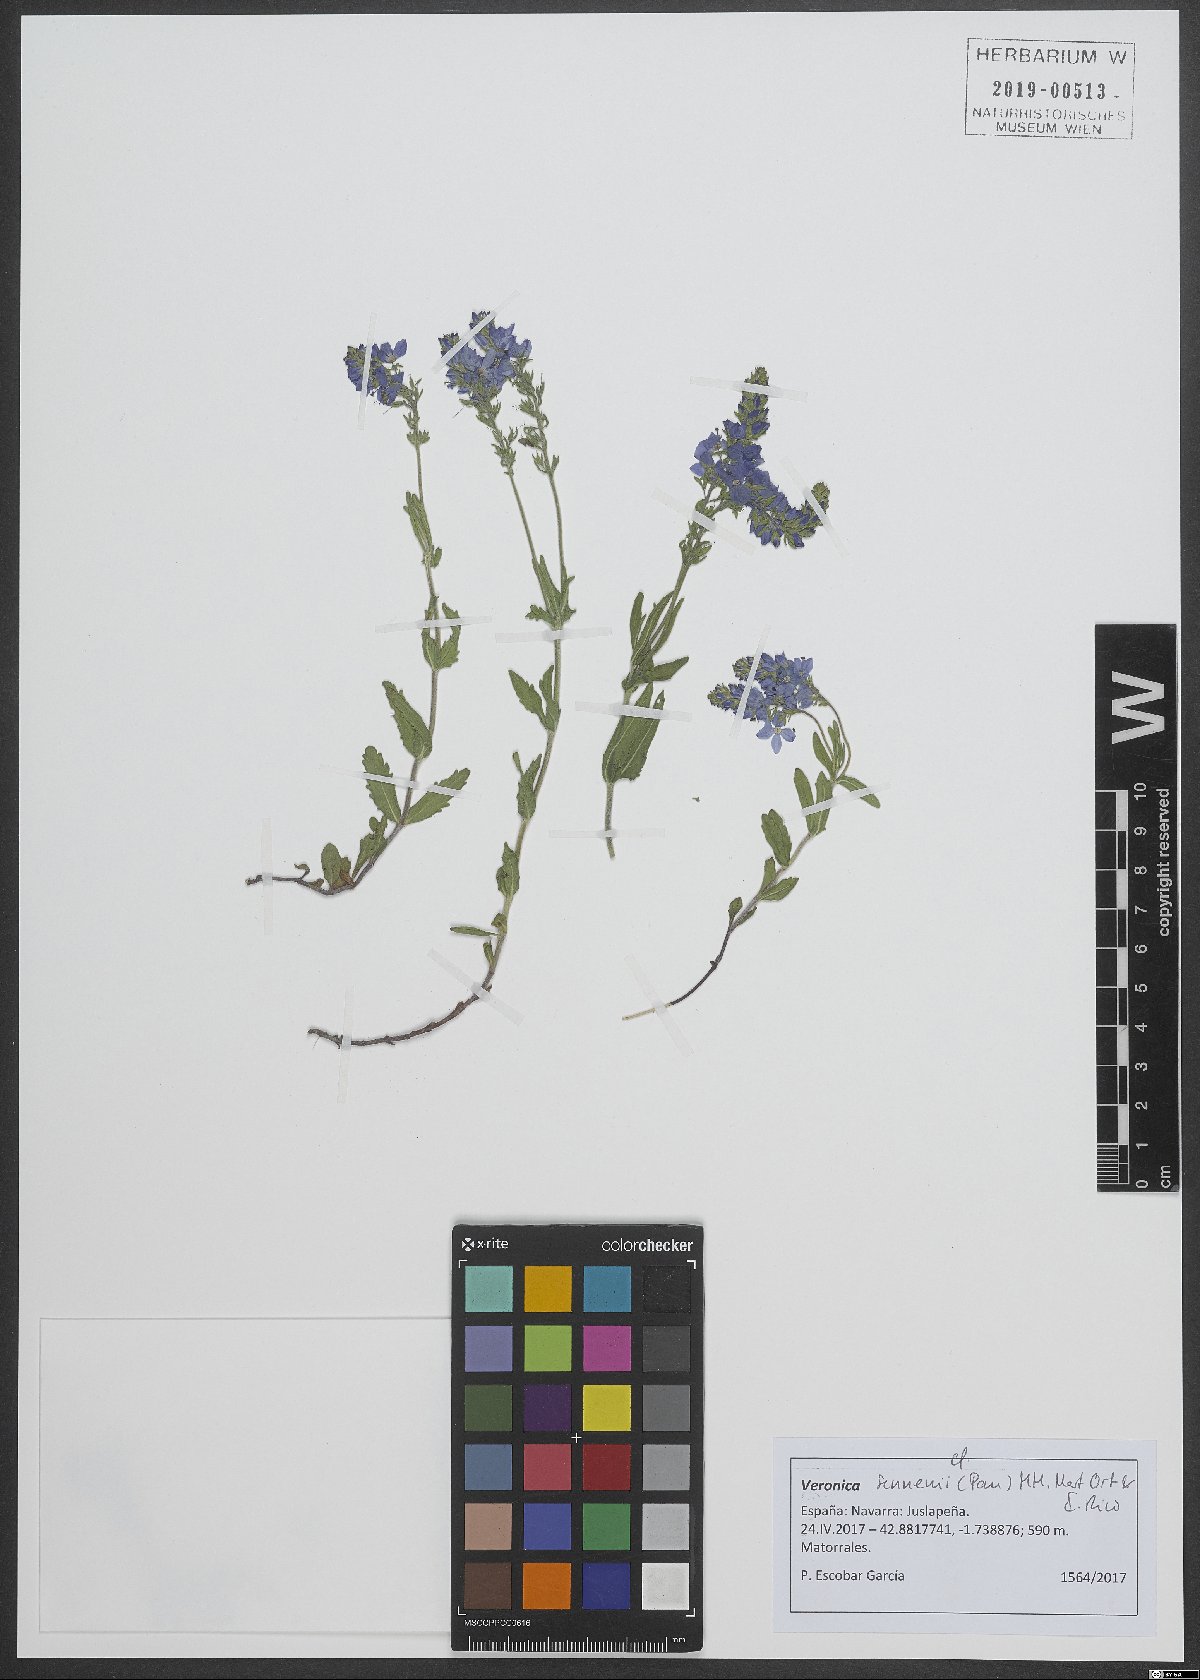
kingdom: Plantae
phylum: Tracheophyta
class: Magnoliopsida
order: Lamiales
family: Plantaginaceae
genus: Veronica
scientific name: Veronica sennenii
